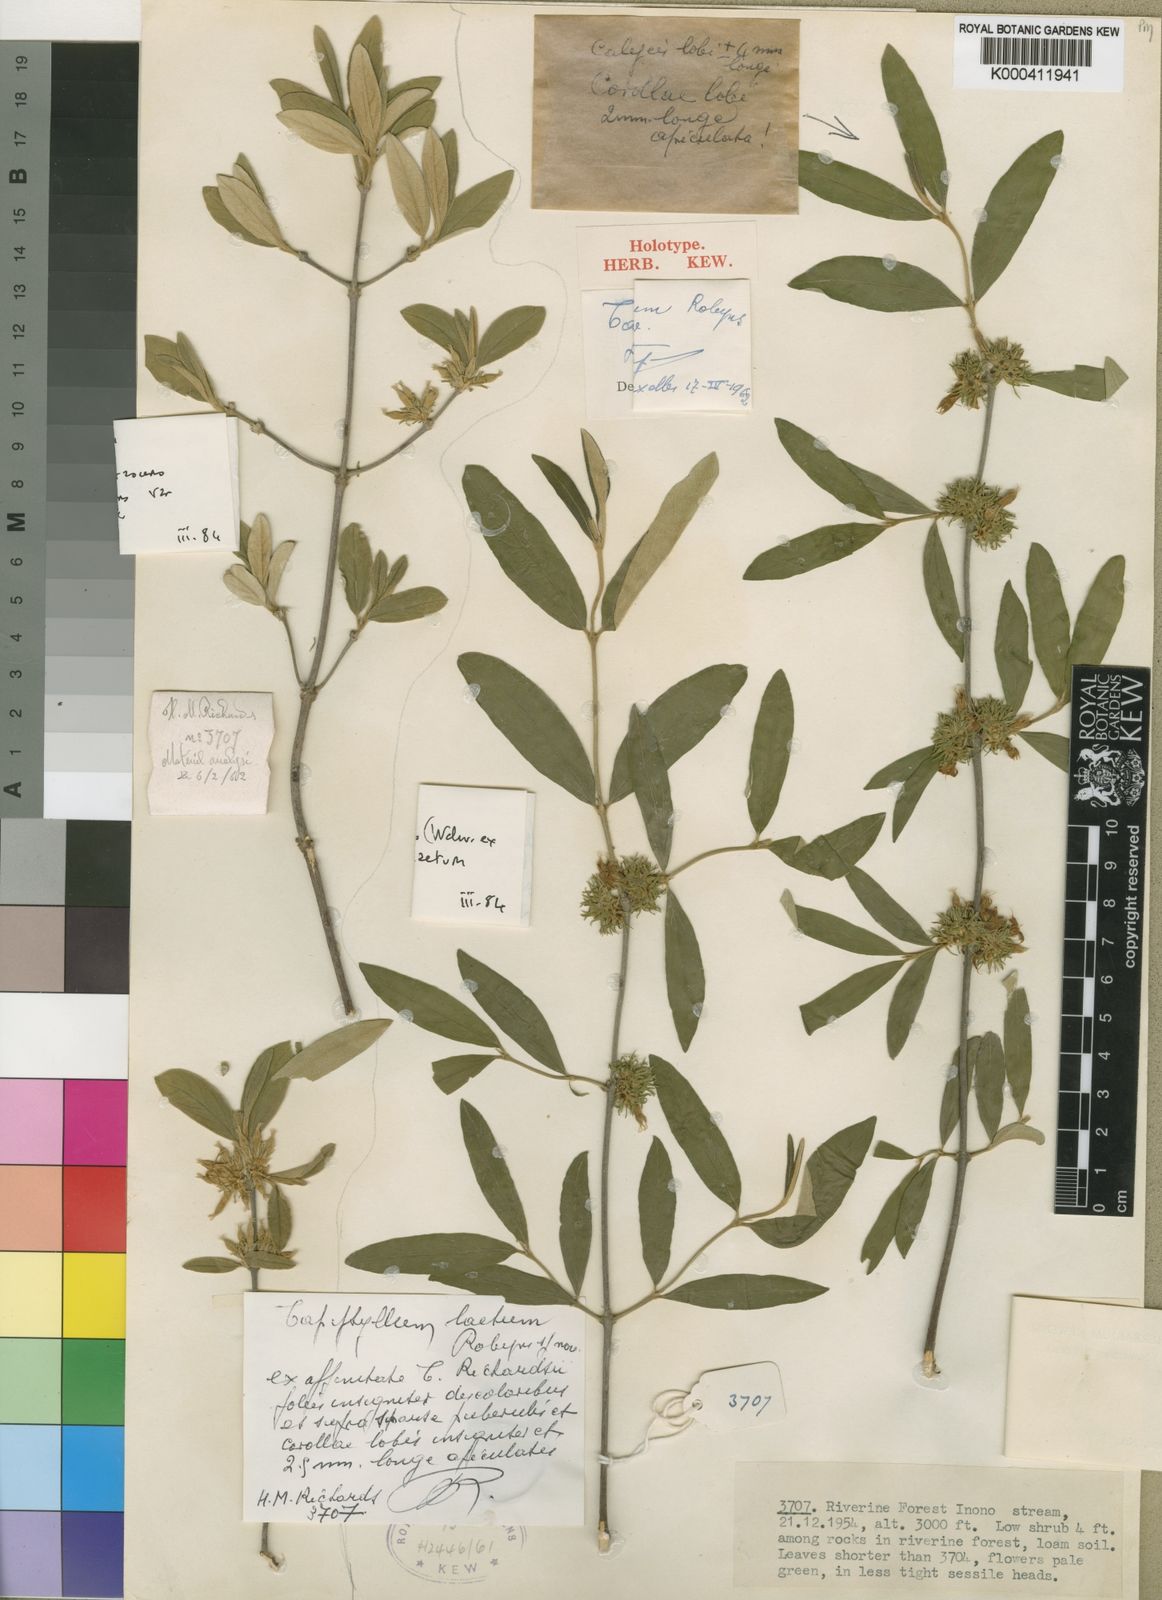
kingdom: Plantae
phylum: Tracheophyta
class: Magnoliopsida
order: Gentianales
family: Rubiaceae
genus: Vangueria
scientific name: Vangueria cinerascens
